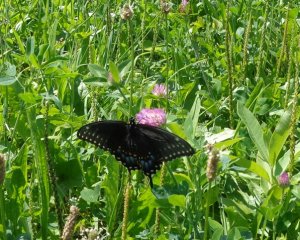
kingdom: Animalia
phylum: Arthropoda
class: Insecta
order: Lepidoptera
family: Papilionidae
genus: Papilio
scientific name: Papilio polyxenes
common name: Black Swallowtail
